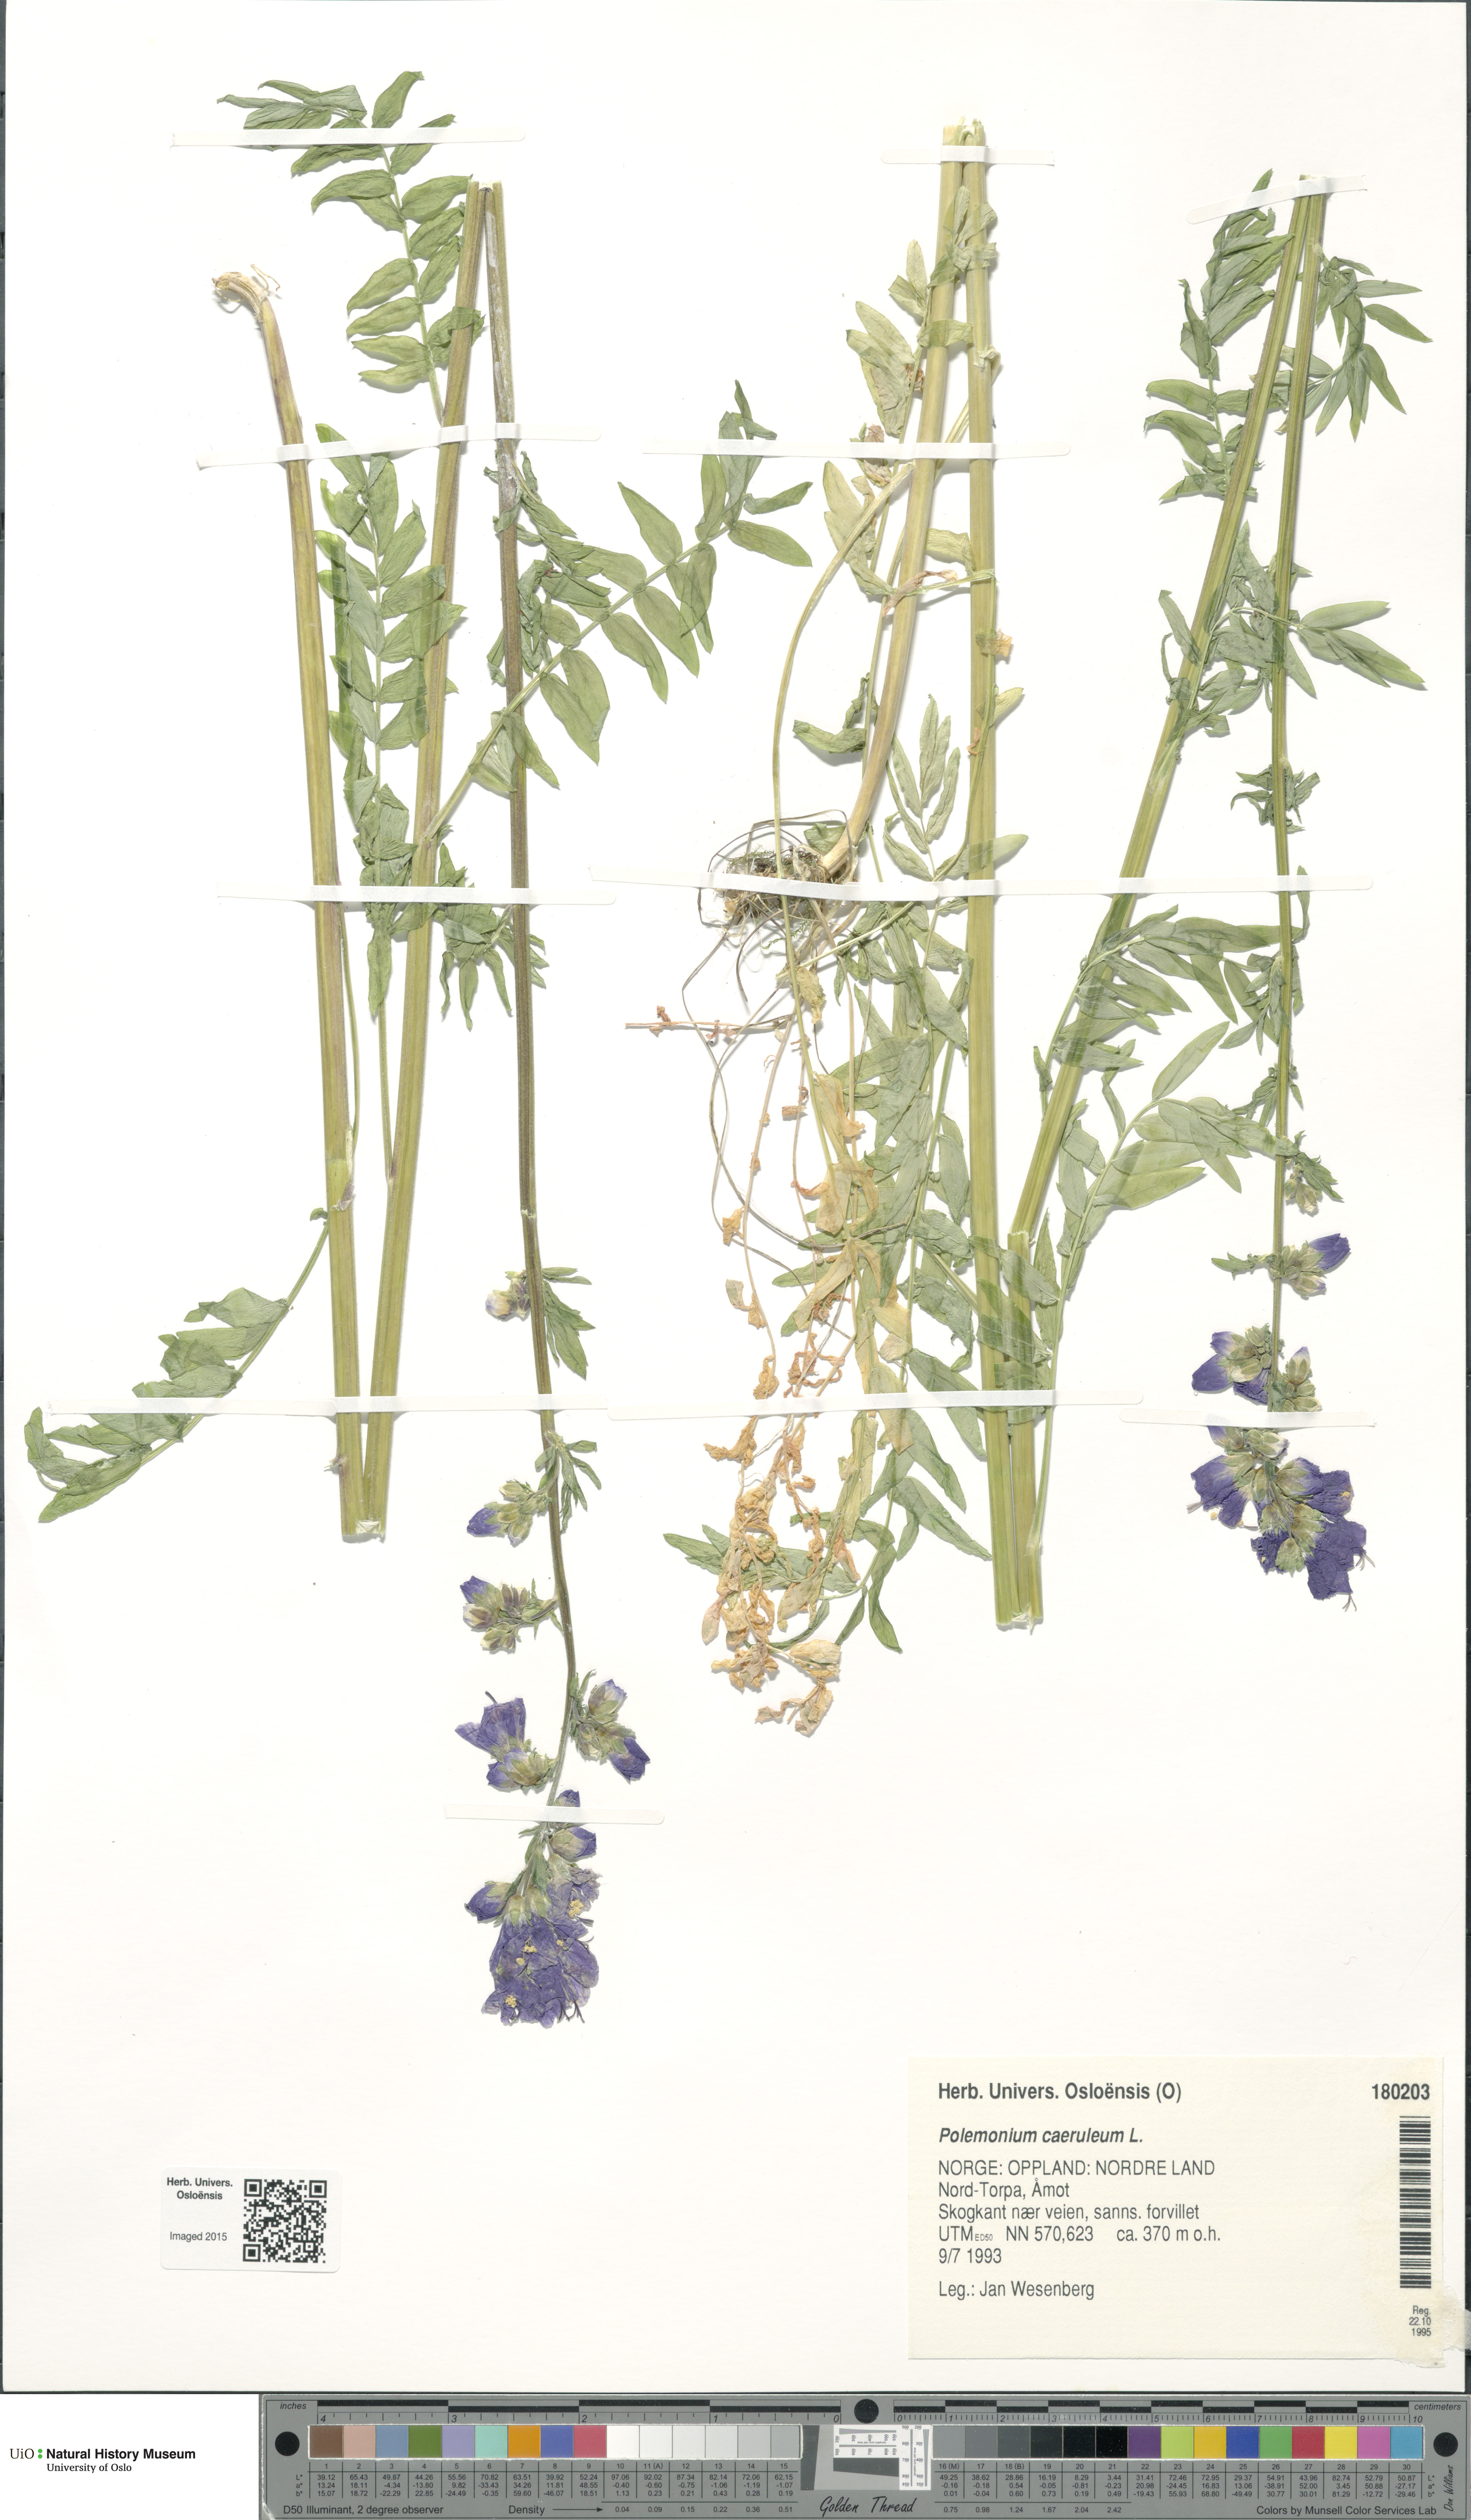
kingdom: Plantae
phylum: Tracheophyta
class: Magnoliopsida
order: Ericales
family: Polemoniaceae
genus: Polemonium
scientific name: Polemonium caeruleum
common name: Jacob's-ladder
